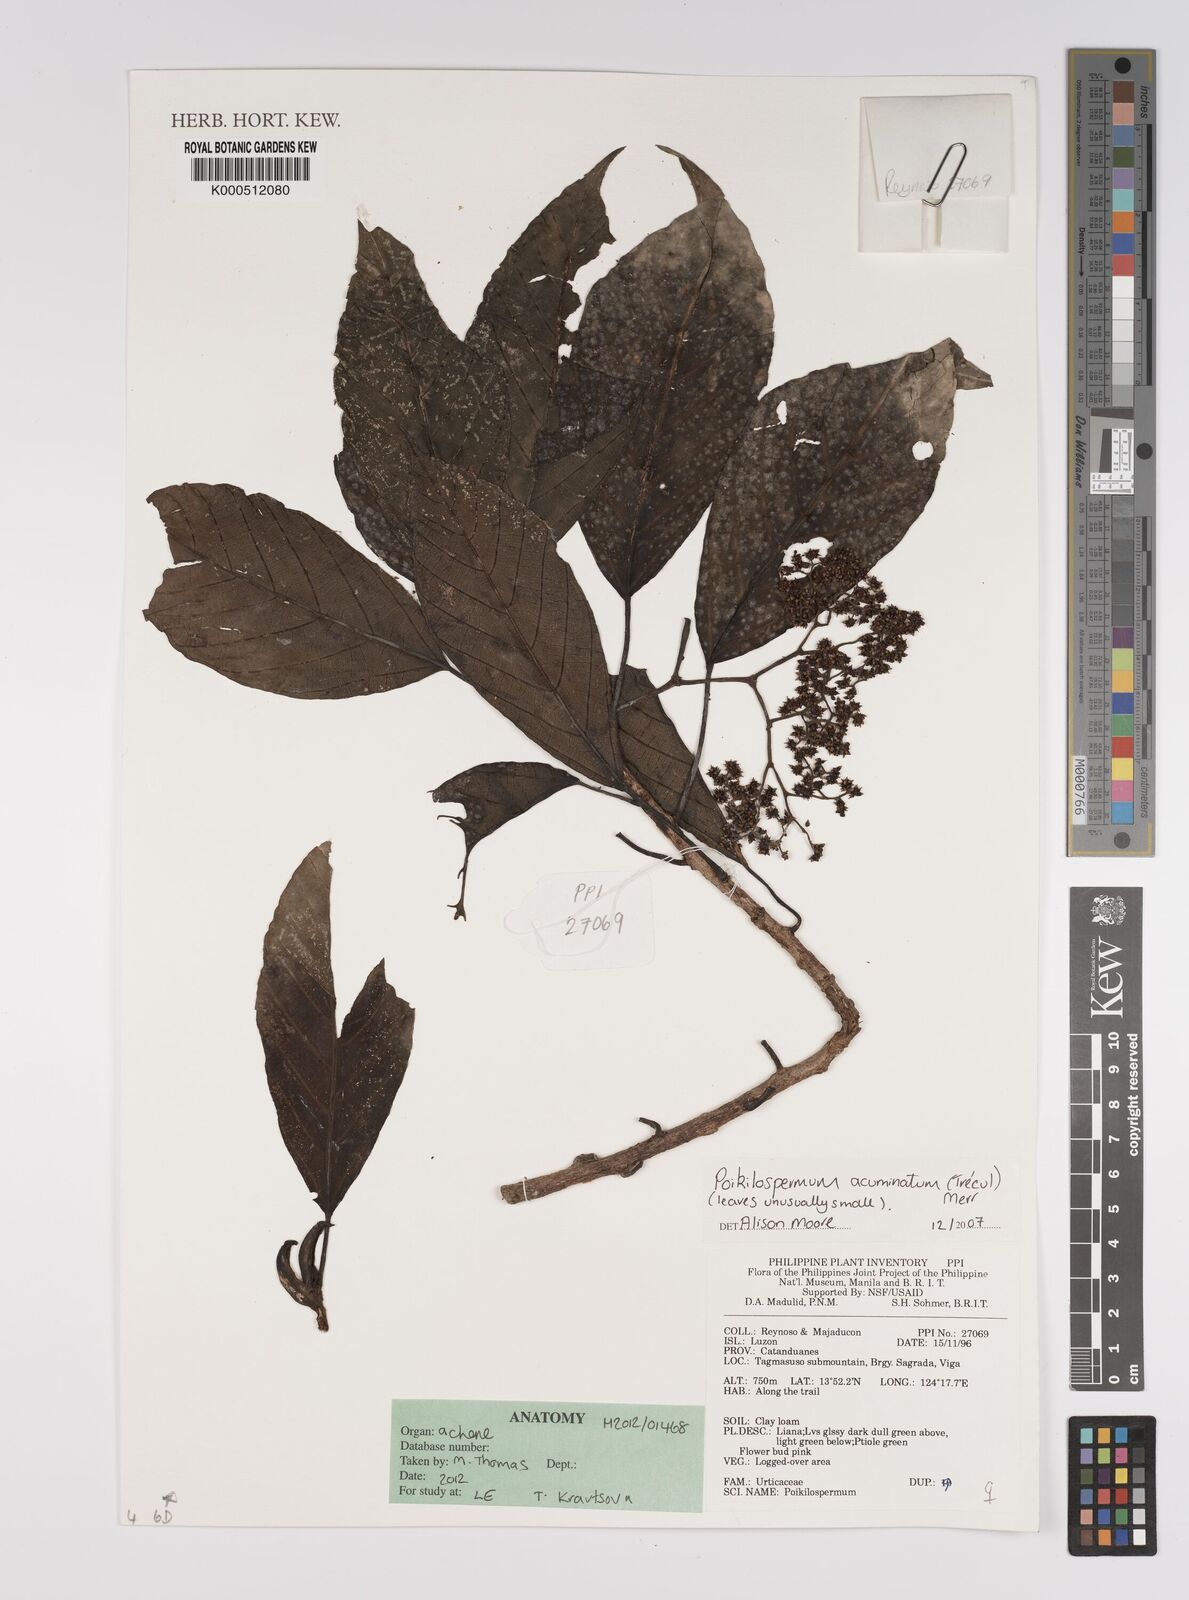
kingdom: Plantae
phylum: Tracheophyta
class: Magnoliopsida
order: Rosales
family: Urticaceae
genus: Poikilospermum
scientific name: Poikilospermum
